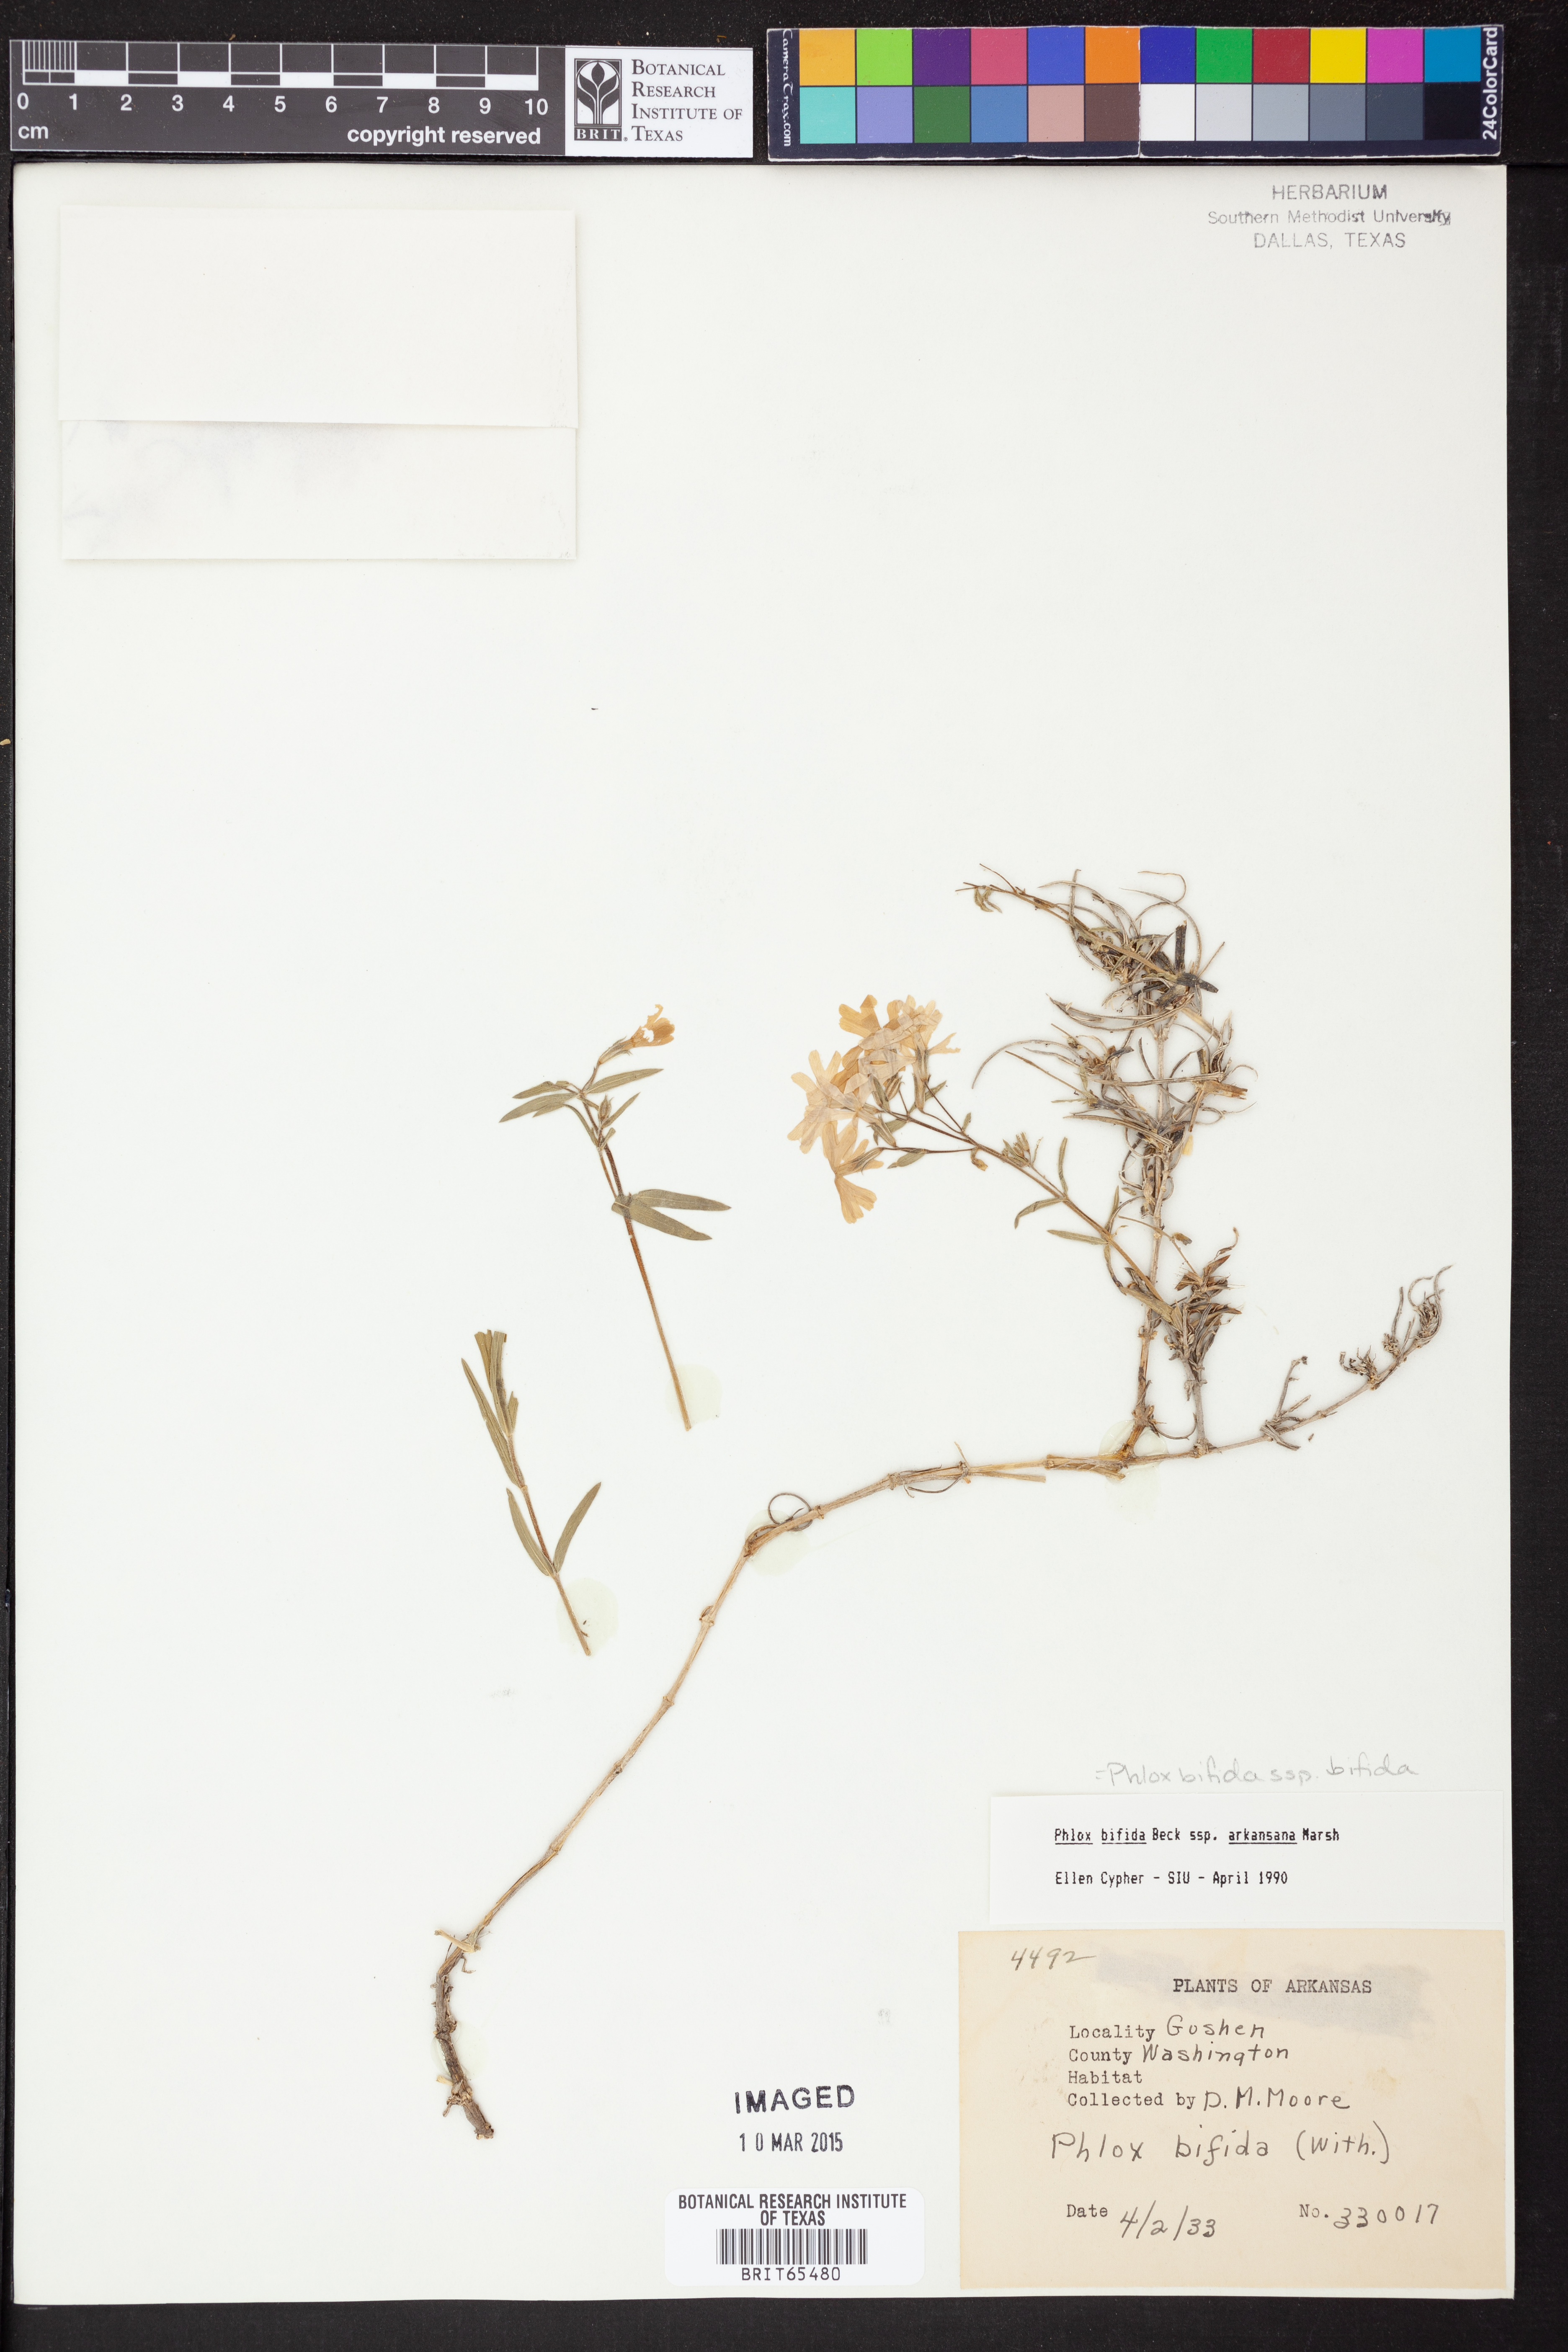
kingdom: Plantae
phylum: Tracheophyta
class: Magnoliopsida
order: Ericales
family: Polemoniaceae
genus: Phlox
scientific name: Phlox bifida
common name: Sand phlox
